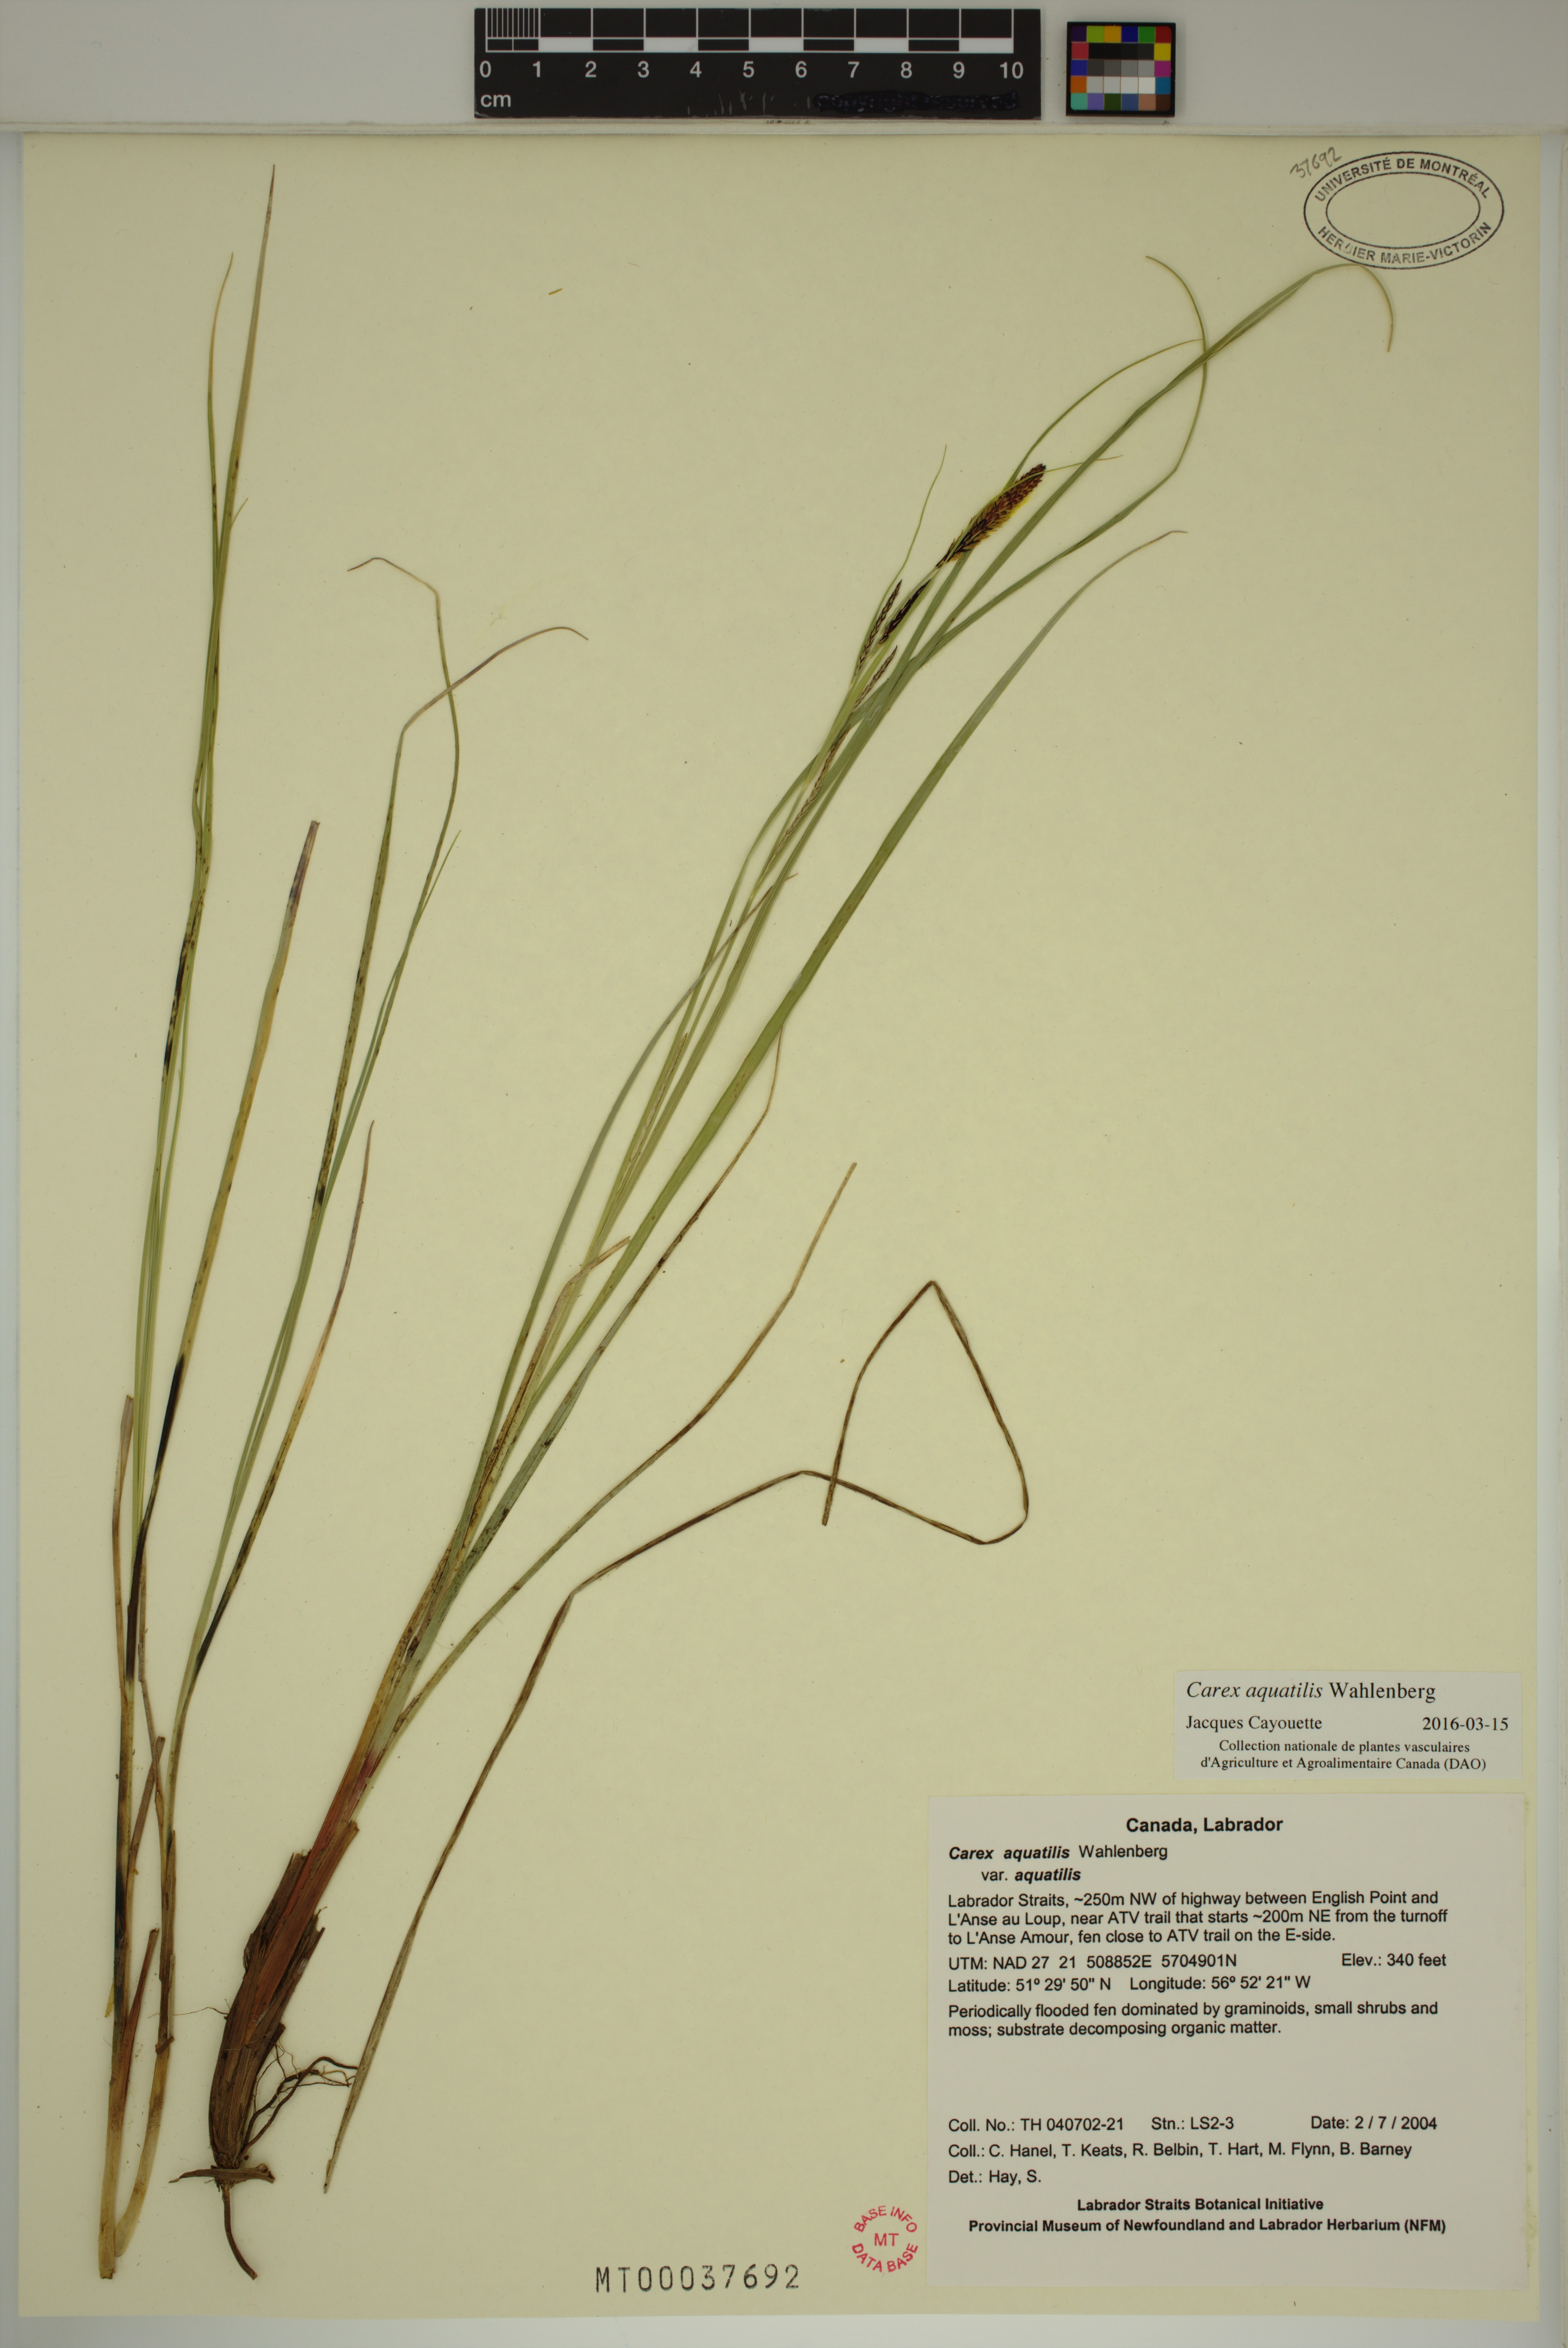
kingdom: Plantae
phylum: Tracheophyta
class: Liliopsida
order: Poales
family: Cyperaceae
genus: Carex
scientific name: Carex aquatilis
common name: Water sedge
